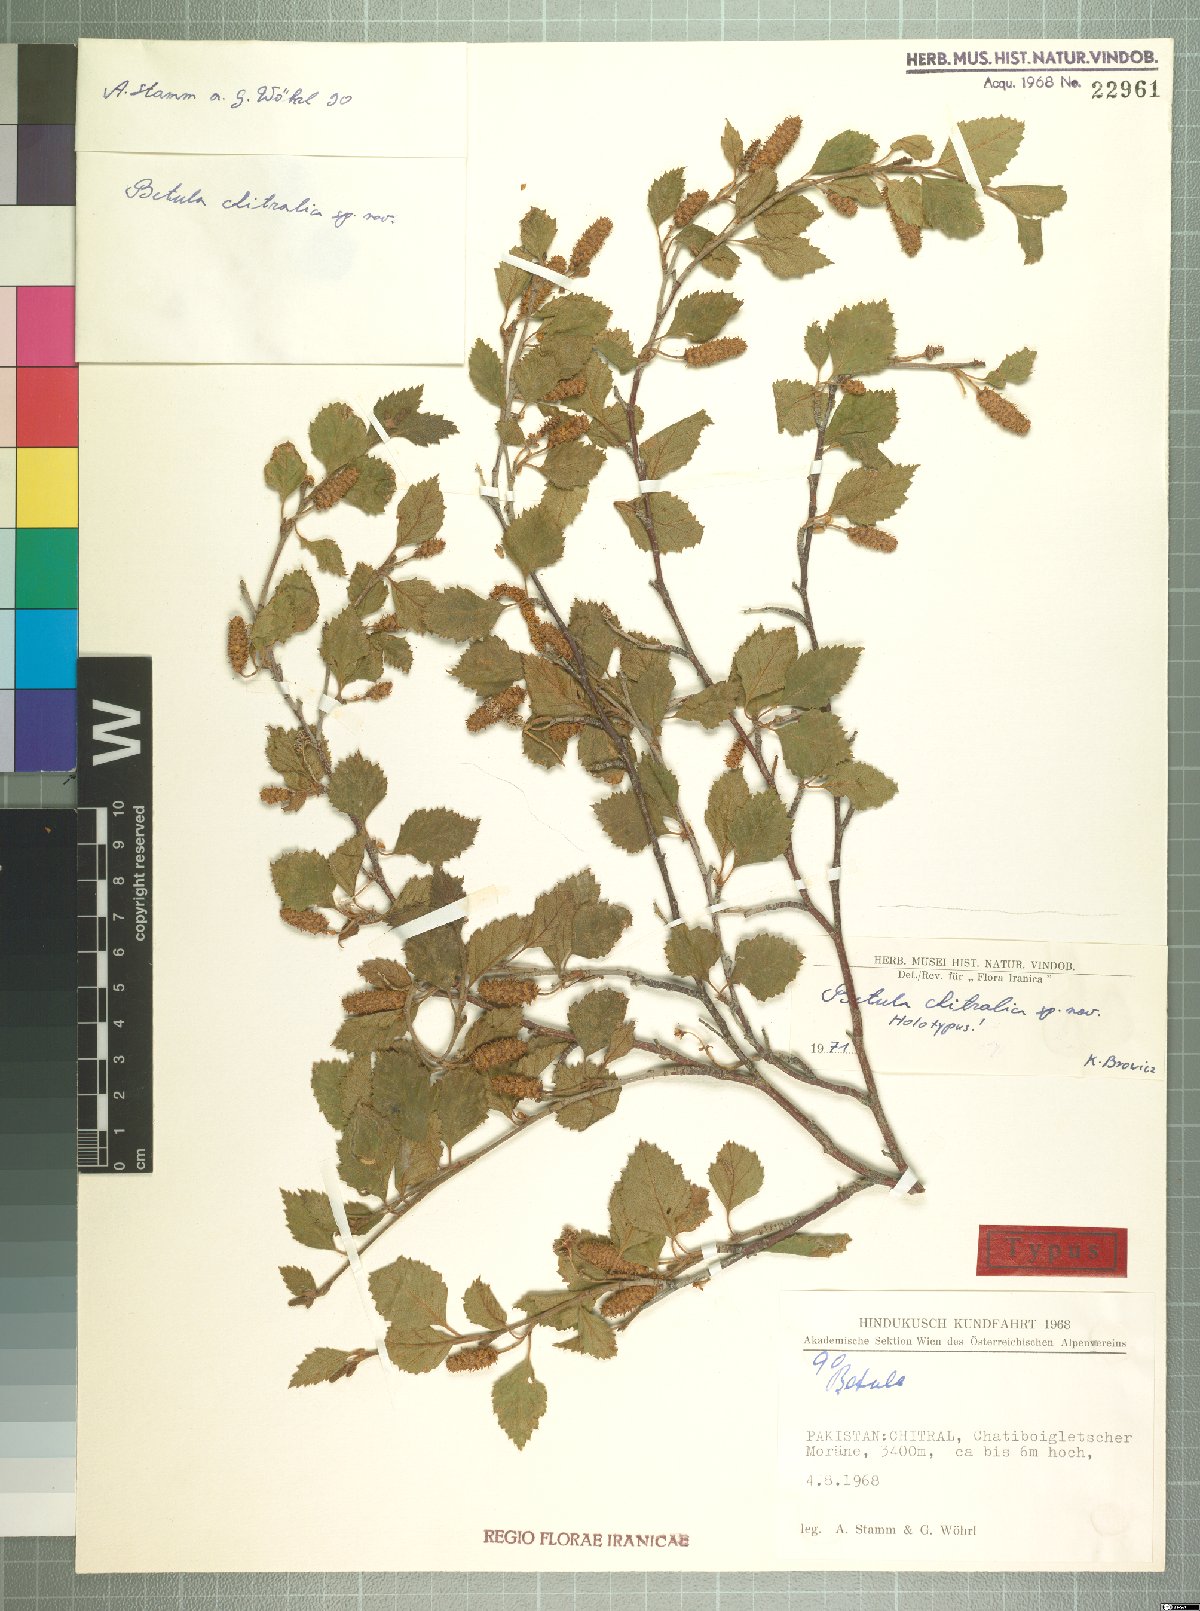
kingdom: Plantae
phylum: Tracheophyta
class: Magnoliopsida
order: Fagales
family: Betulaceae
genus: Betula
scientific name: Betula utilis
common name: Himalayan birch
